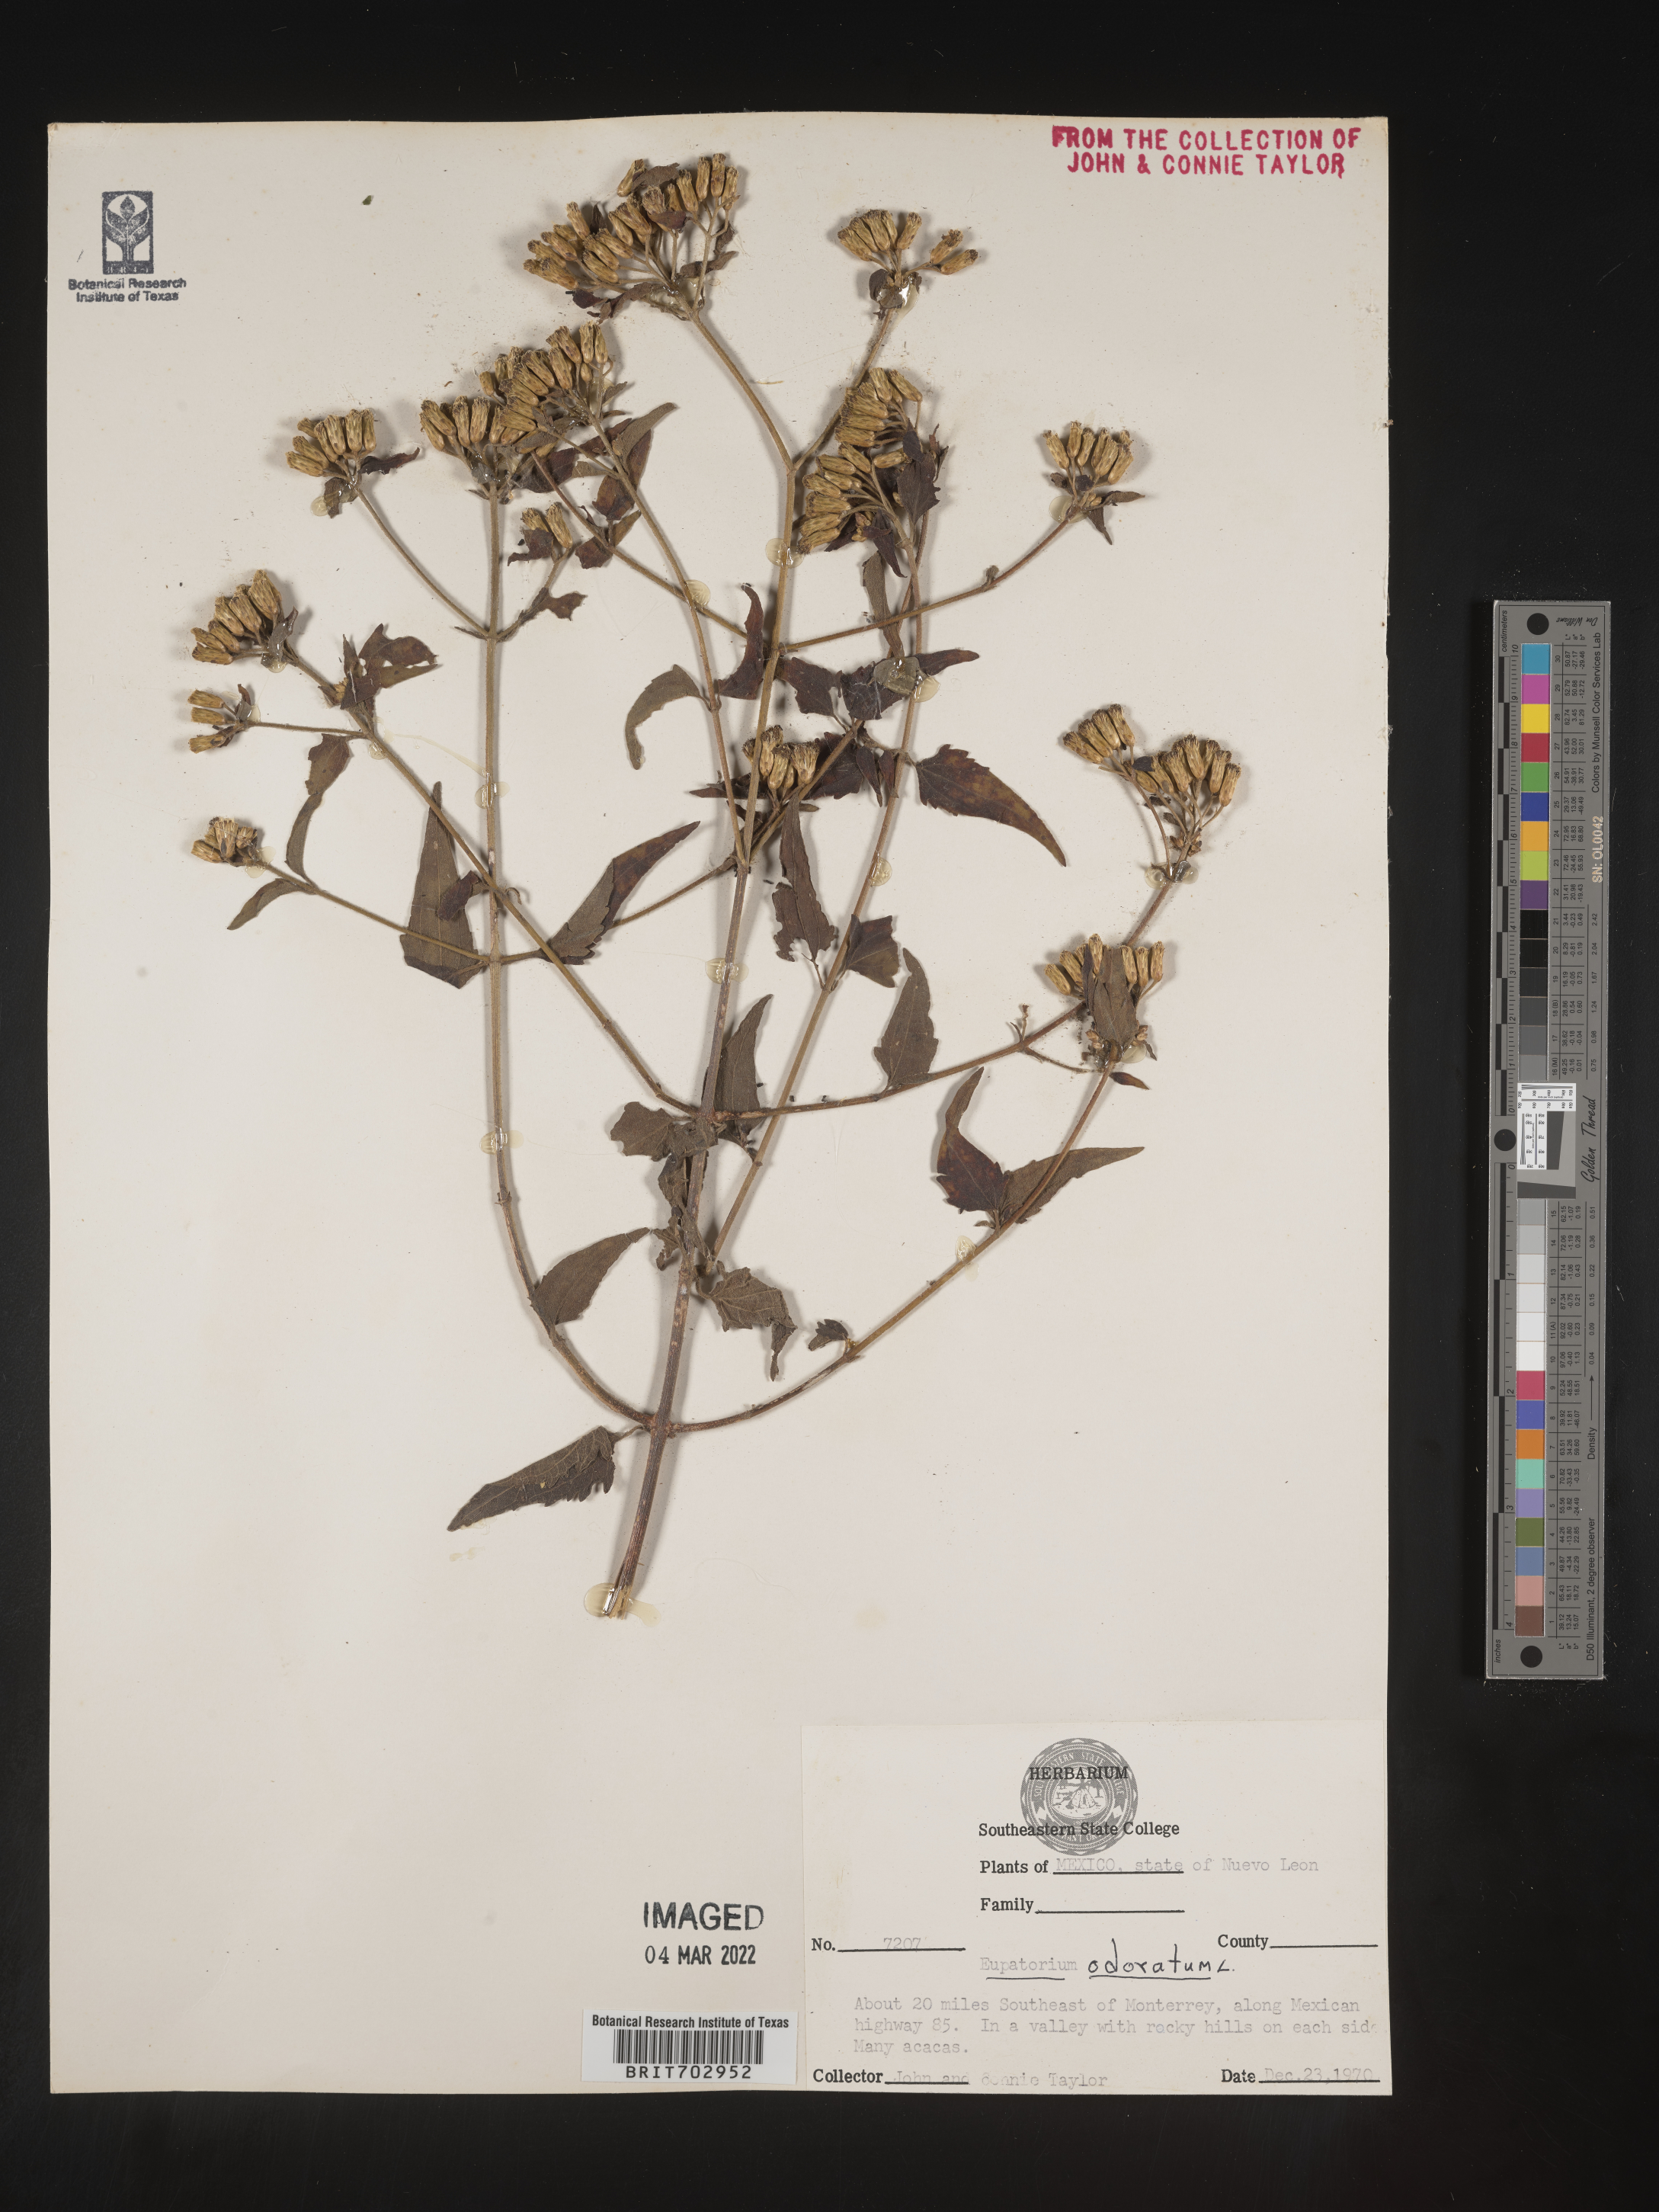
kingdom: Plantae
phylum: Tracheophyta
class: Magnoliopsida
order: Asterales
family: Asteraceae
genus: Eupatorium
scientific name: Eupatorium
